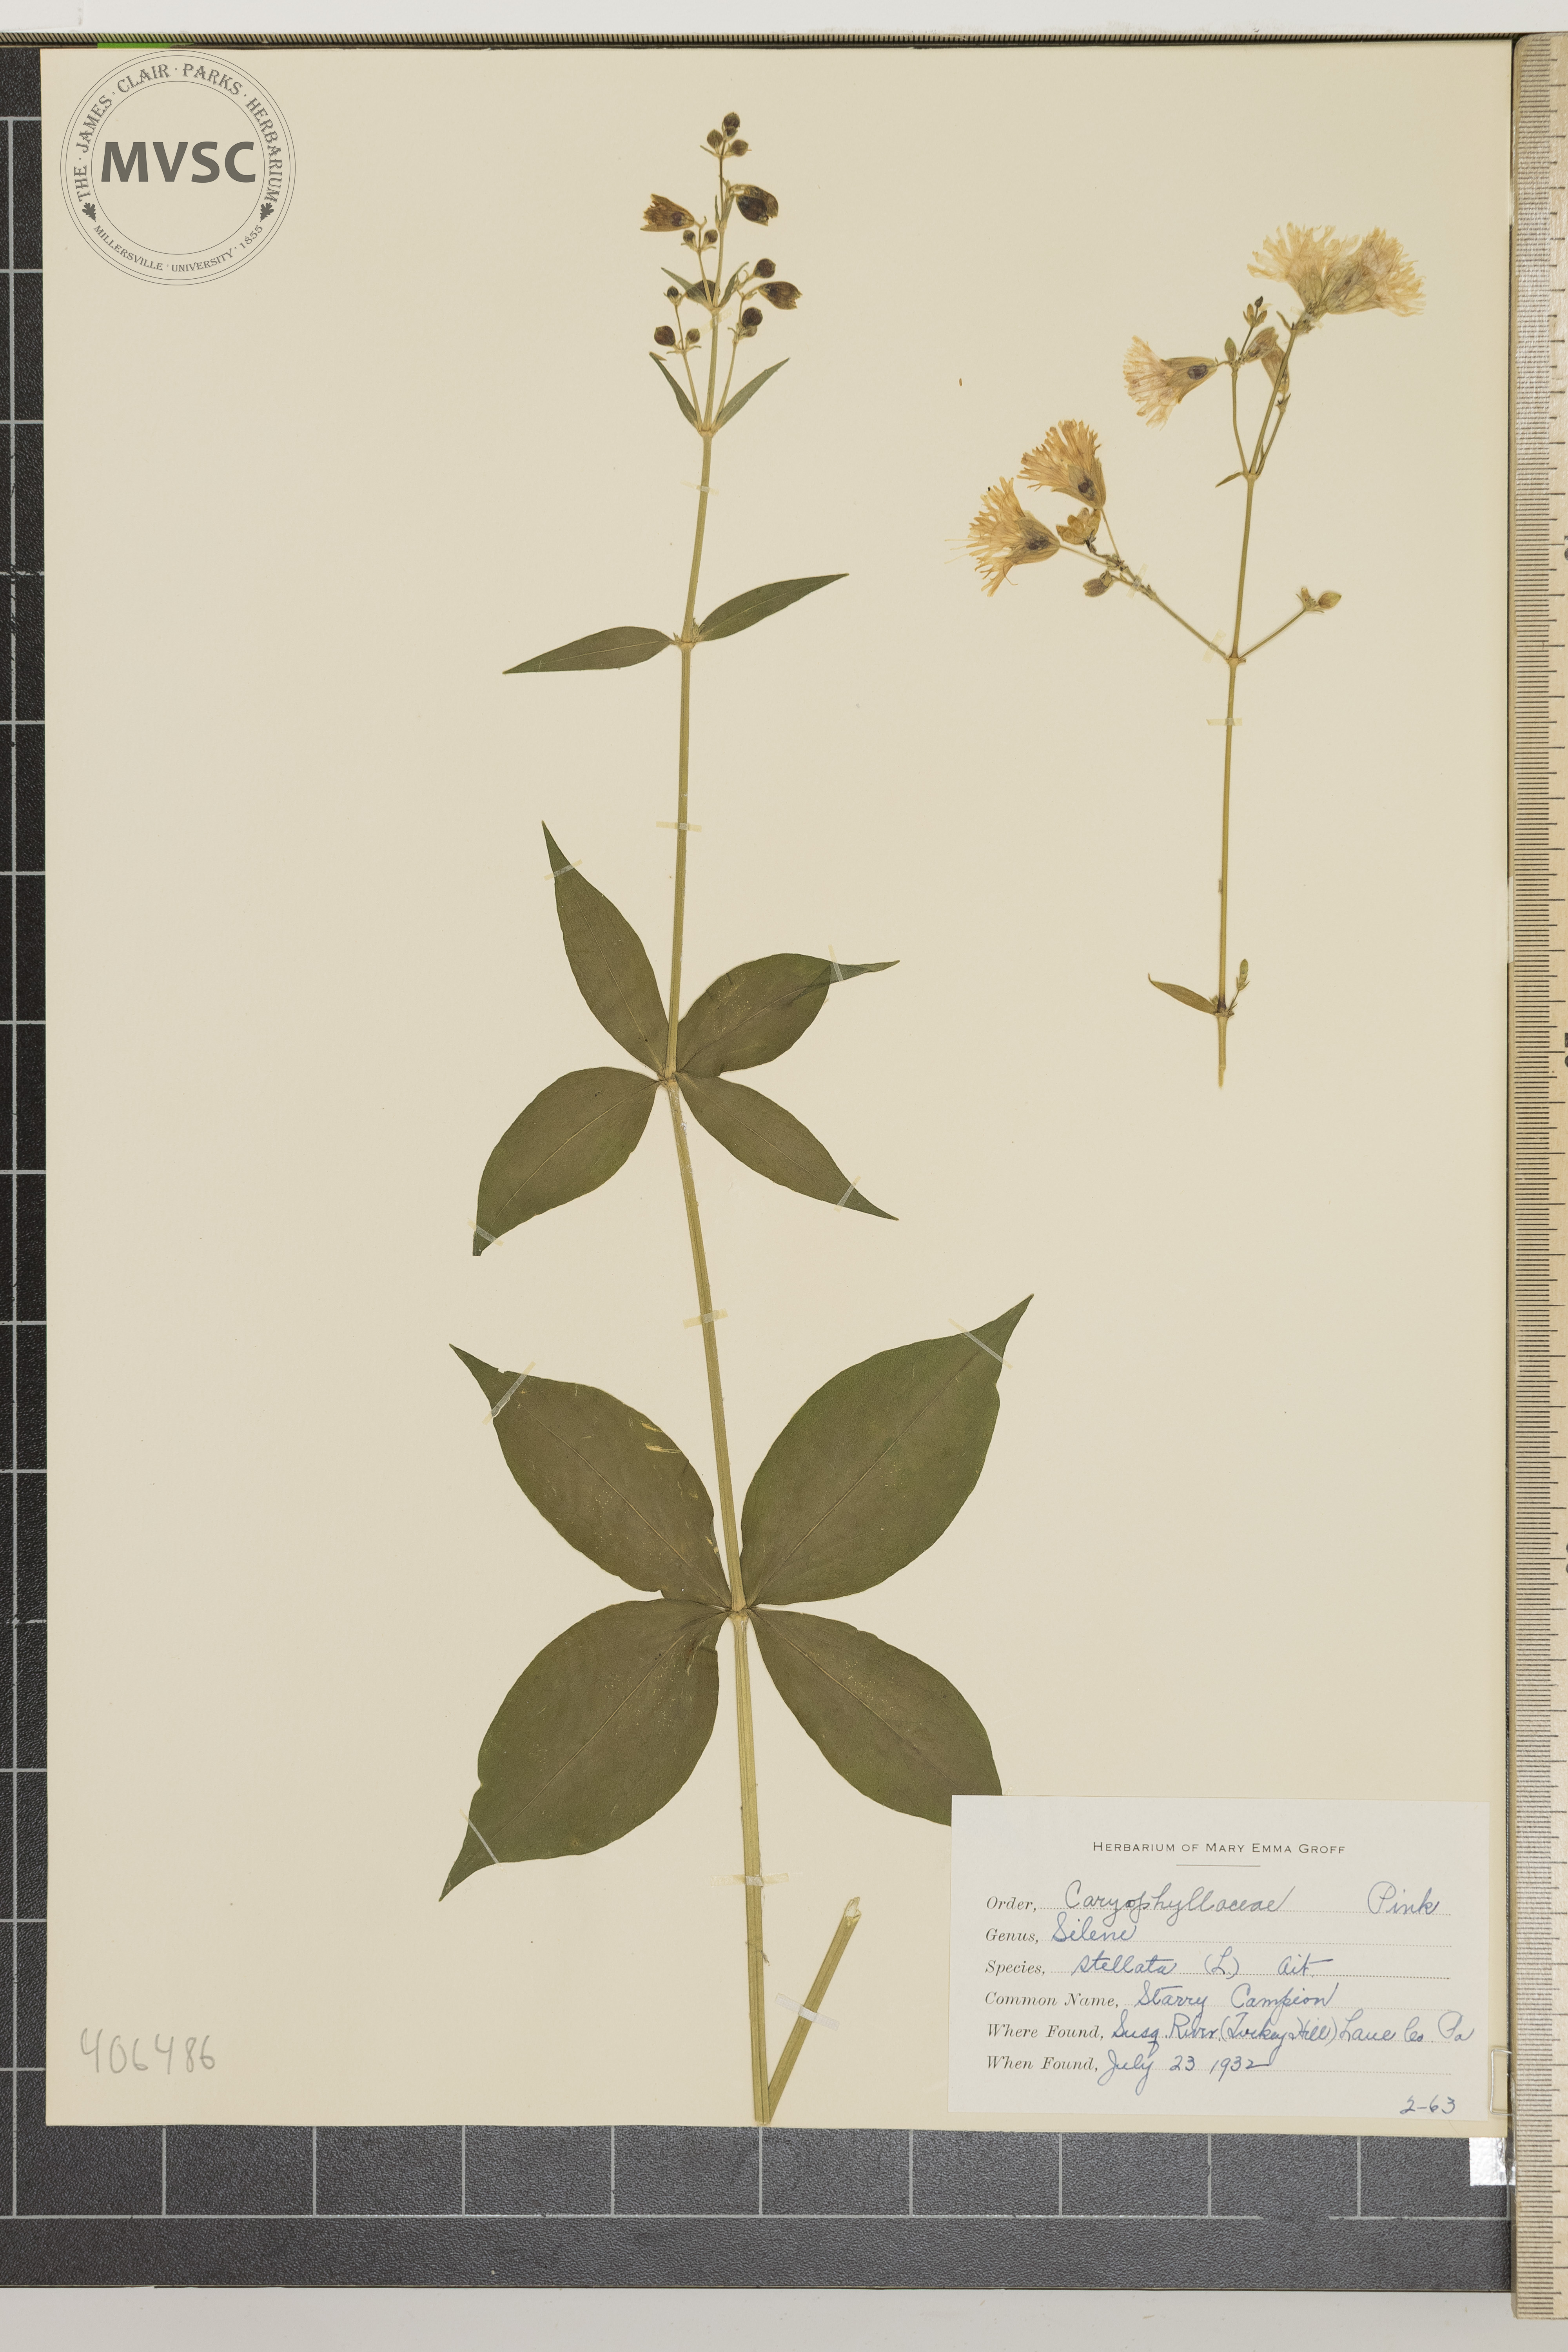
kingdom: Plantae
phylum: Tracheophyta
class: Magnoliopsida
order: Caryophyllales
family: Caryophyllaceae
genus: Silene
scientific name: Silene stellata
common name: Starry Campion
